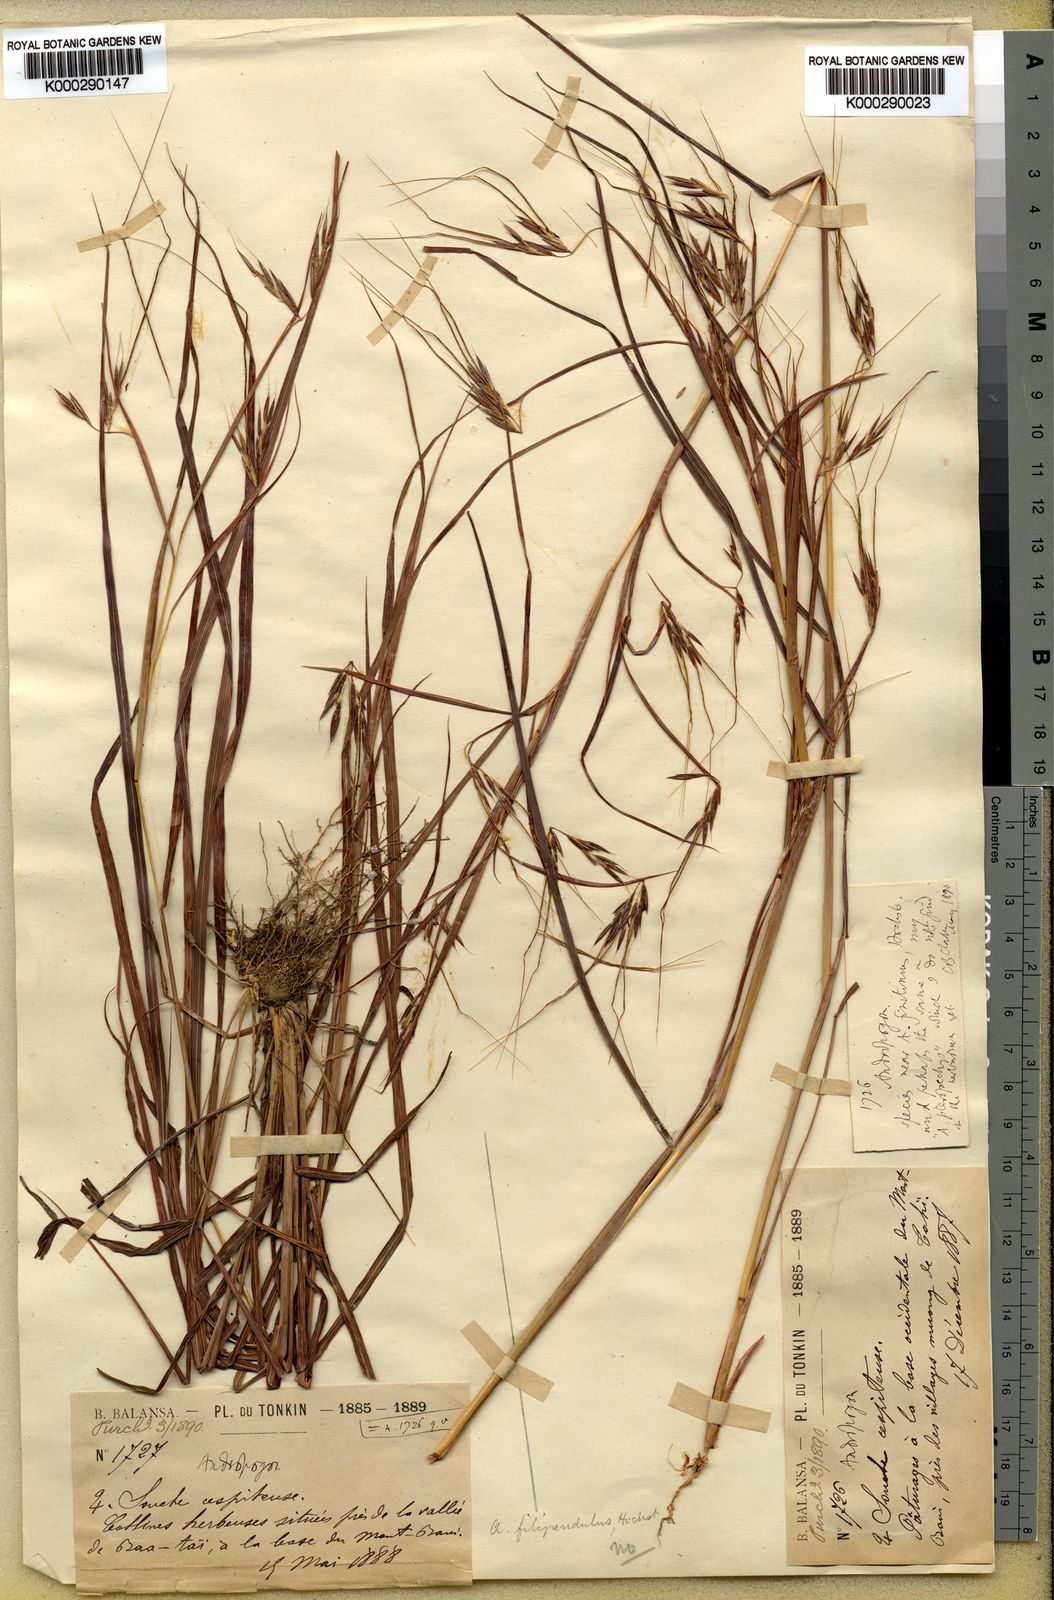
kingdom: Plantae
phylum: Tracheophyta
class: Liliopsida
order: Poales
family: Poaceae
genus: Hyparrhenia
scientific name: Hyparrhenia familiaris
